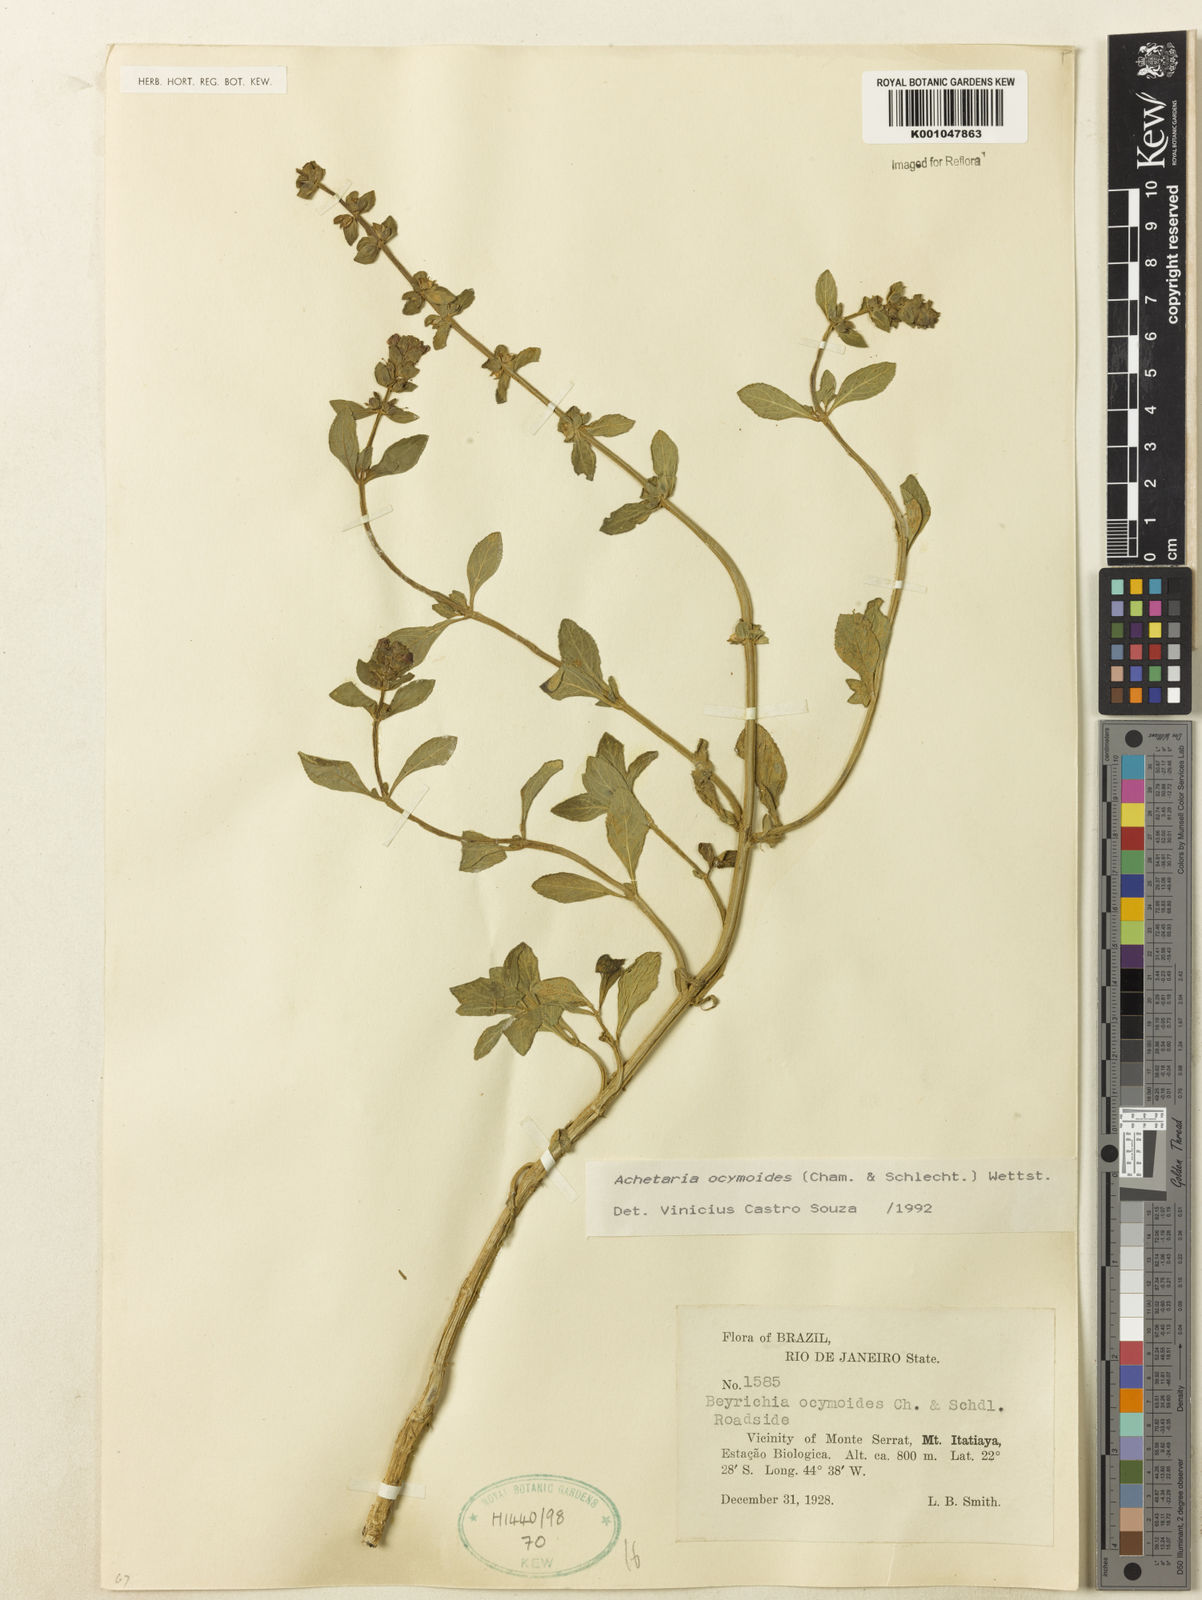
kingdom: Plantae
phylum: Tracheophyta
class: Magnoliopsida
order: Lamiales
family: Plantaginaceae
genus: Matourea
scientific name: Matourea ocymoides
